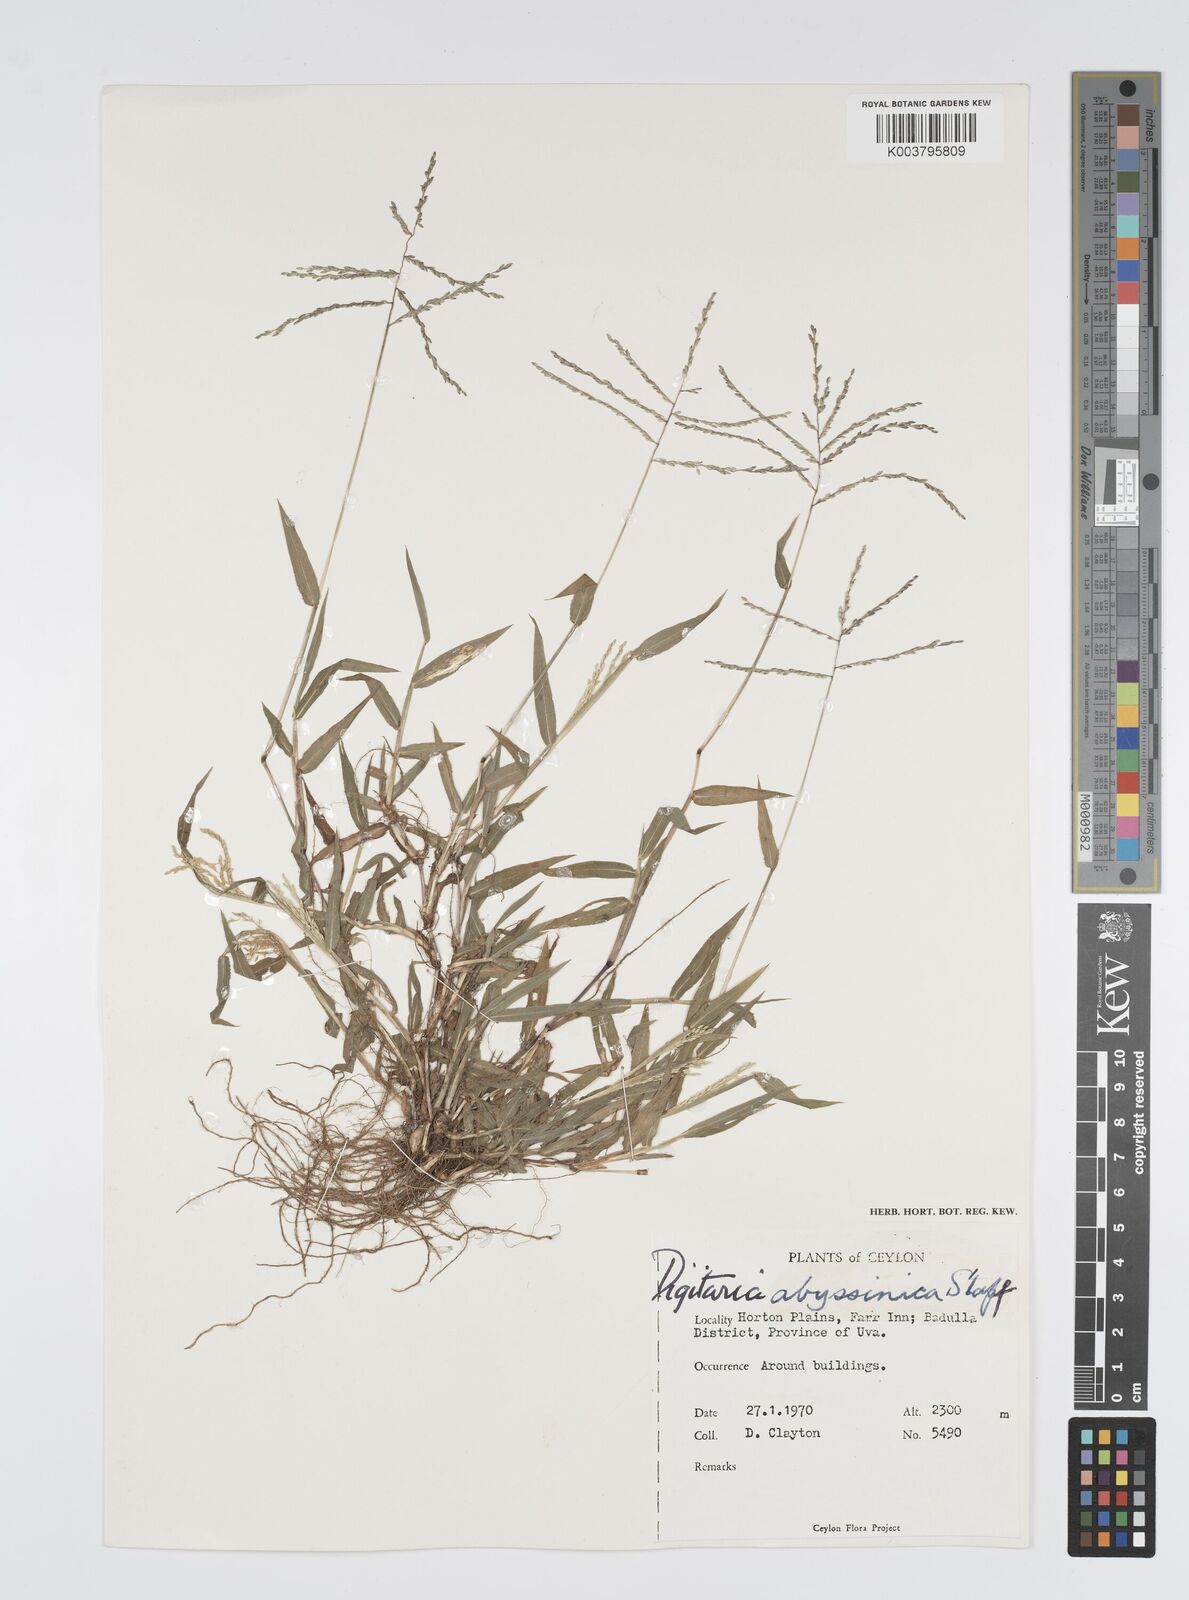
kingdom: Plantae
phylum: Tracheophyta
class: Liliopsida
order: Poales
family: Poaceae
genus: Digitaria
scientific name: Digitaria abyssinica
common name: African couchgrass
